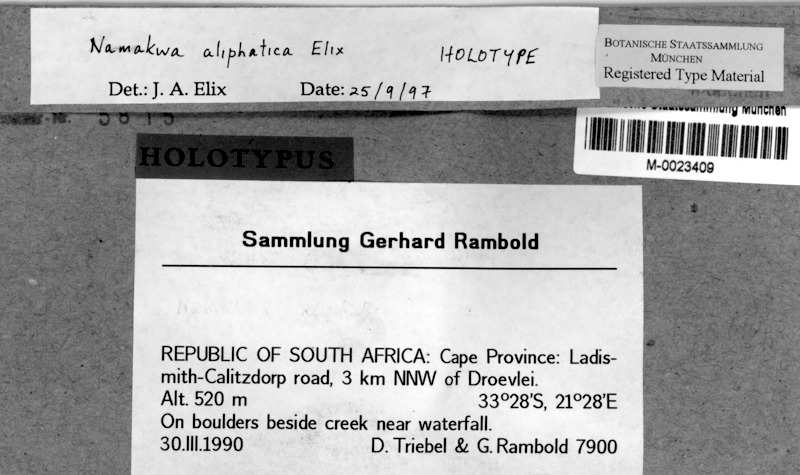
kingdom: Fungi
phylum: Ascomycota
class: Lecanoromycetes
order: Lecanorales
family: Parmeliaceae
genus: Xanthoparmelia
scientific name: Xanthoparmelia aliphaticella
